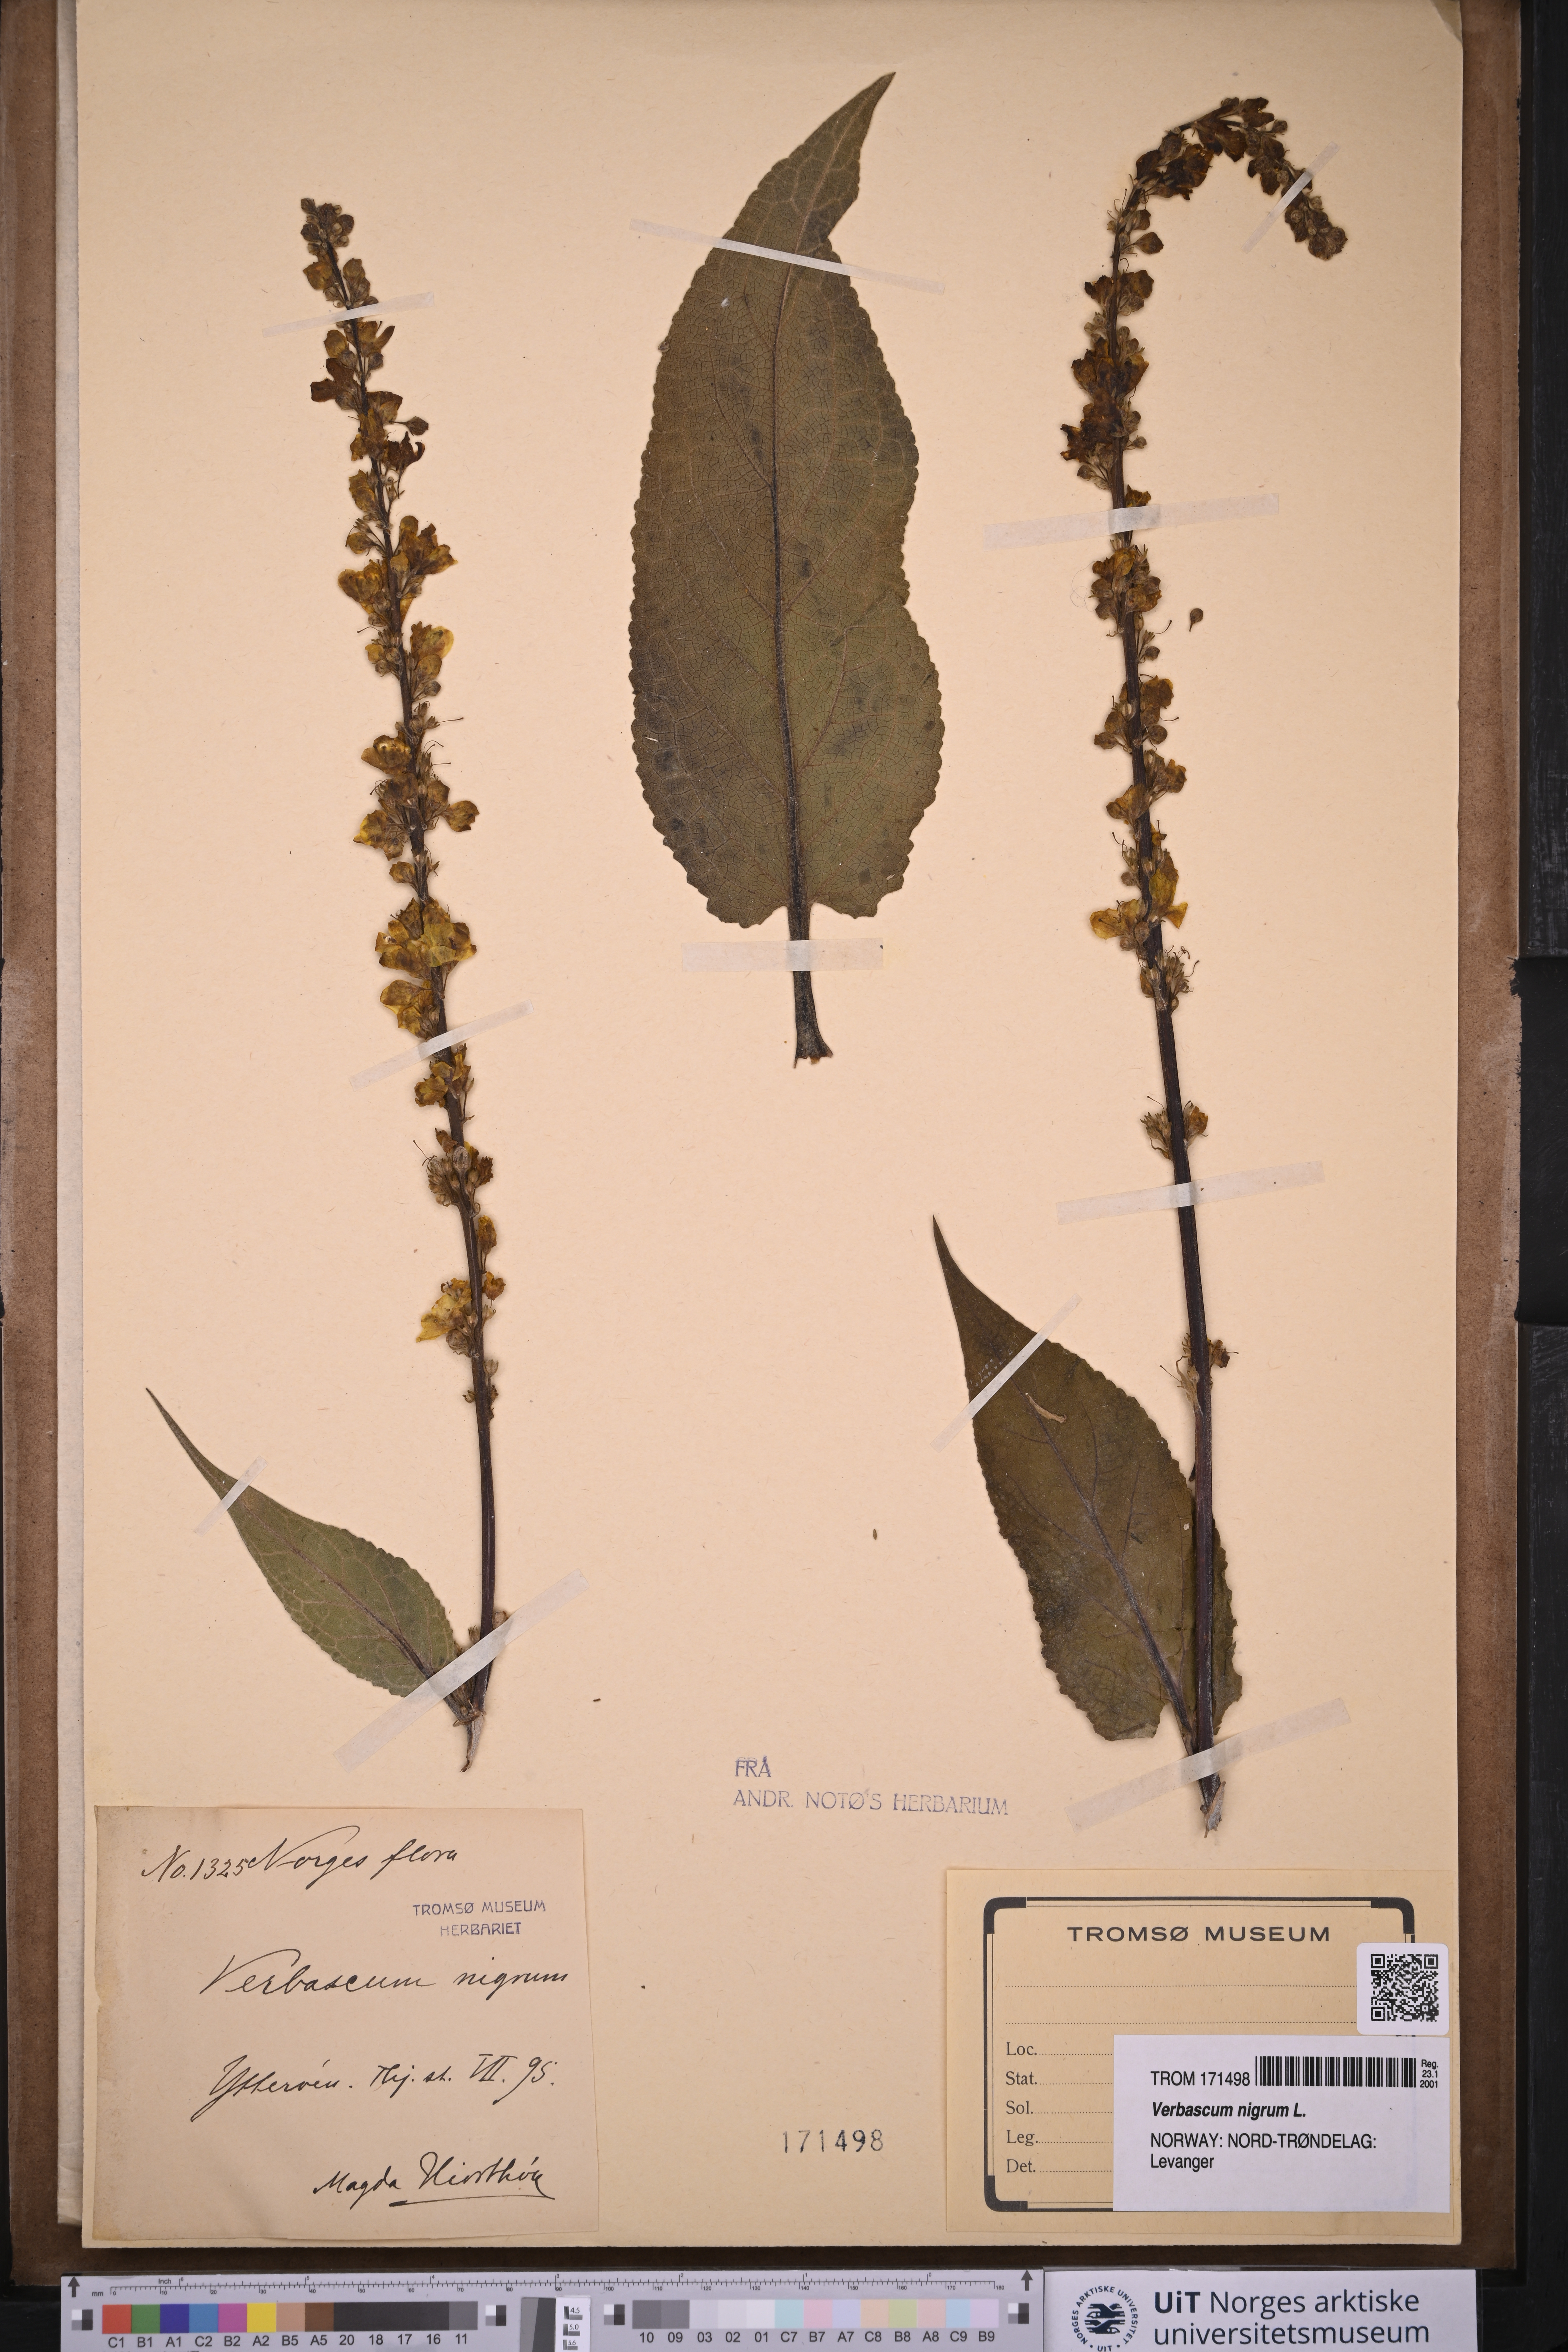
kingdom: Plantae
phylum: Tracheophyta
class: Magnoliopsida
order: Lamiales
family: Scrophulariaceae
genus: Verbascum
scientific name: Verbascum nigrum
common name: Dark mullein
